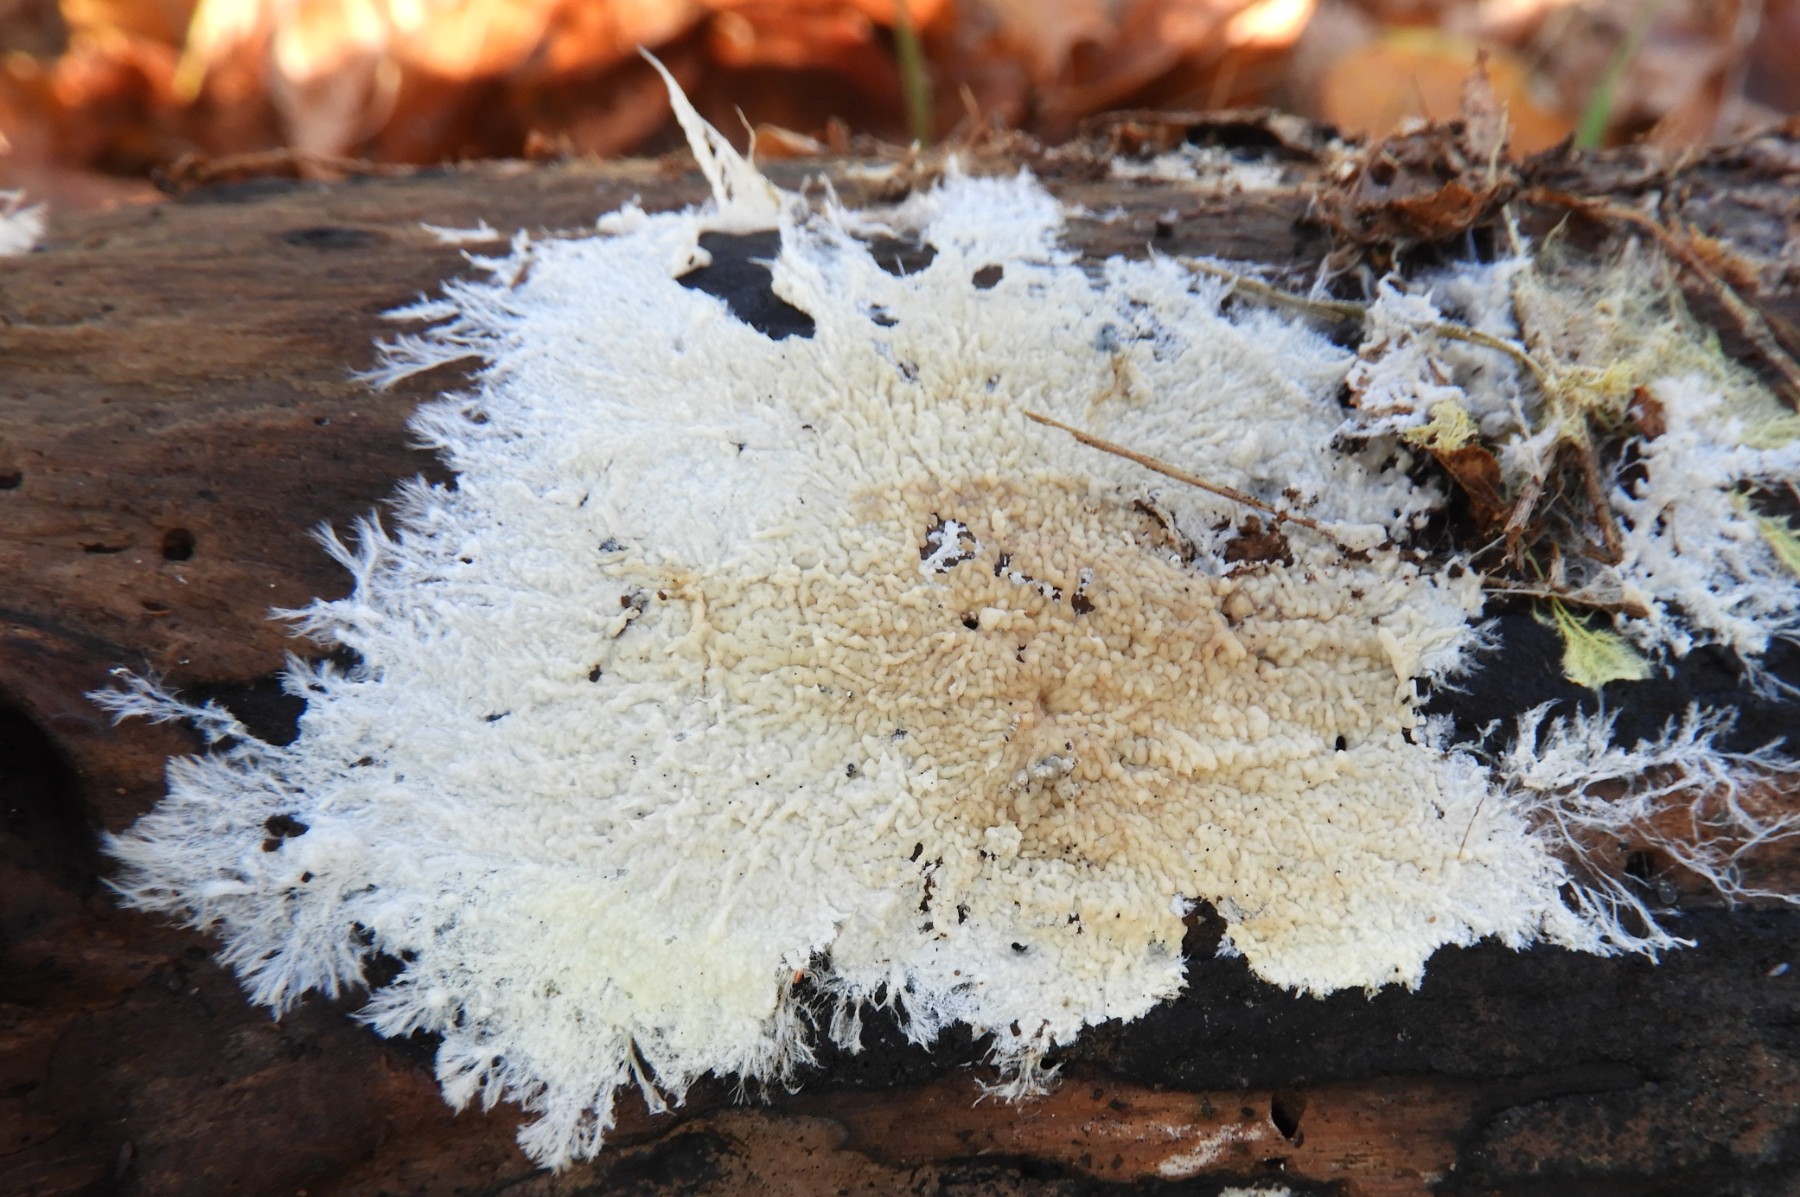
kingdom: Fungi
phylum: Basidiomycota
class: Agaricomycetes
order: Corticiales
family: Corticiaceae
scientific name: Corticiaceae
